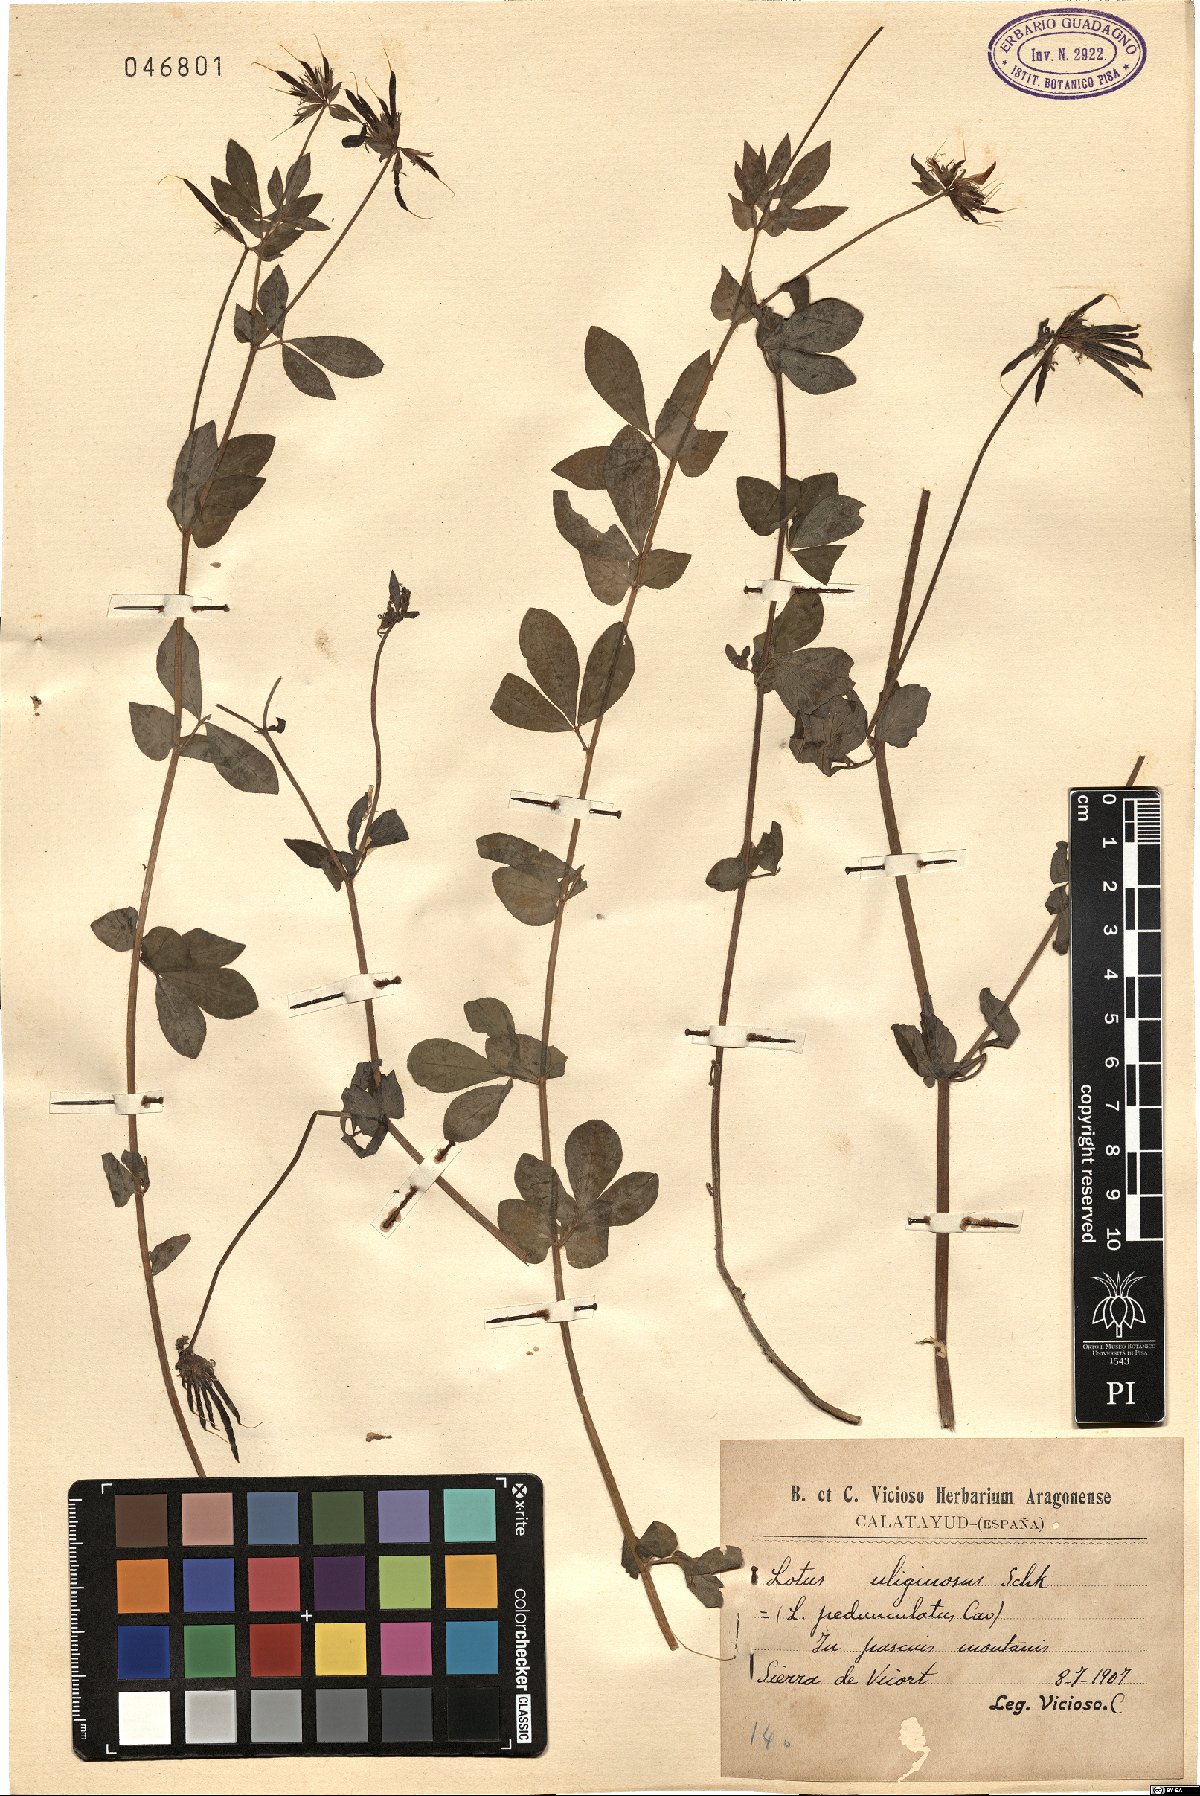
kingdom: Plantae
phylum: Tracheophyta
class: Magnoliopsida
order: Fabales
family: Fabaceae
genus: Lotus
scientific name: Lotus pedunculatus
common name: Greater birdsfoot-trefoil
